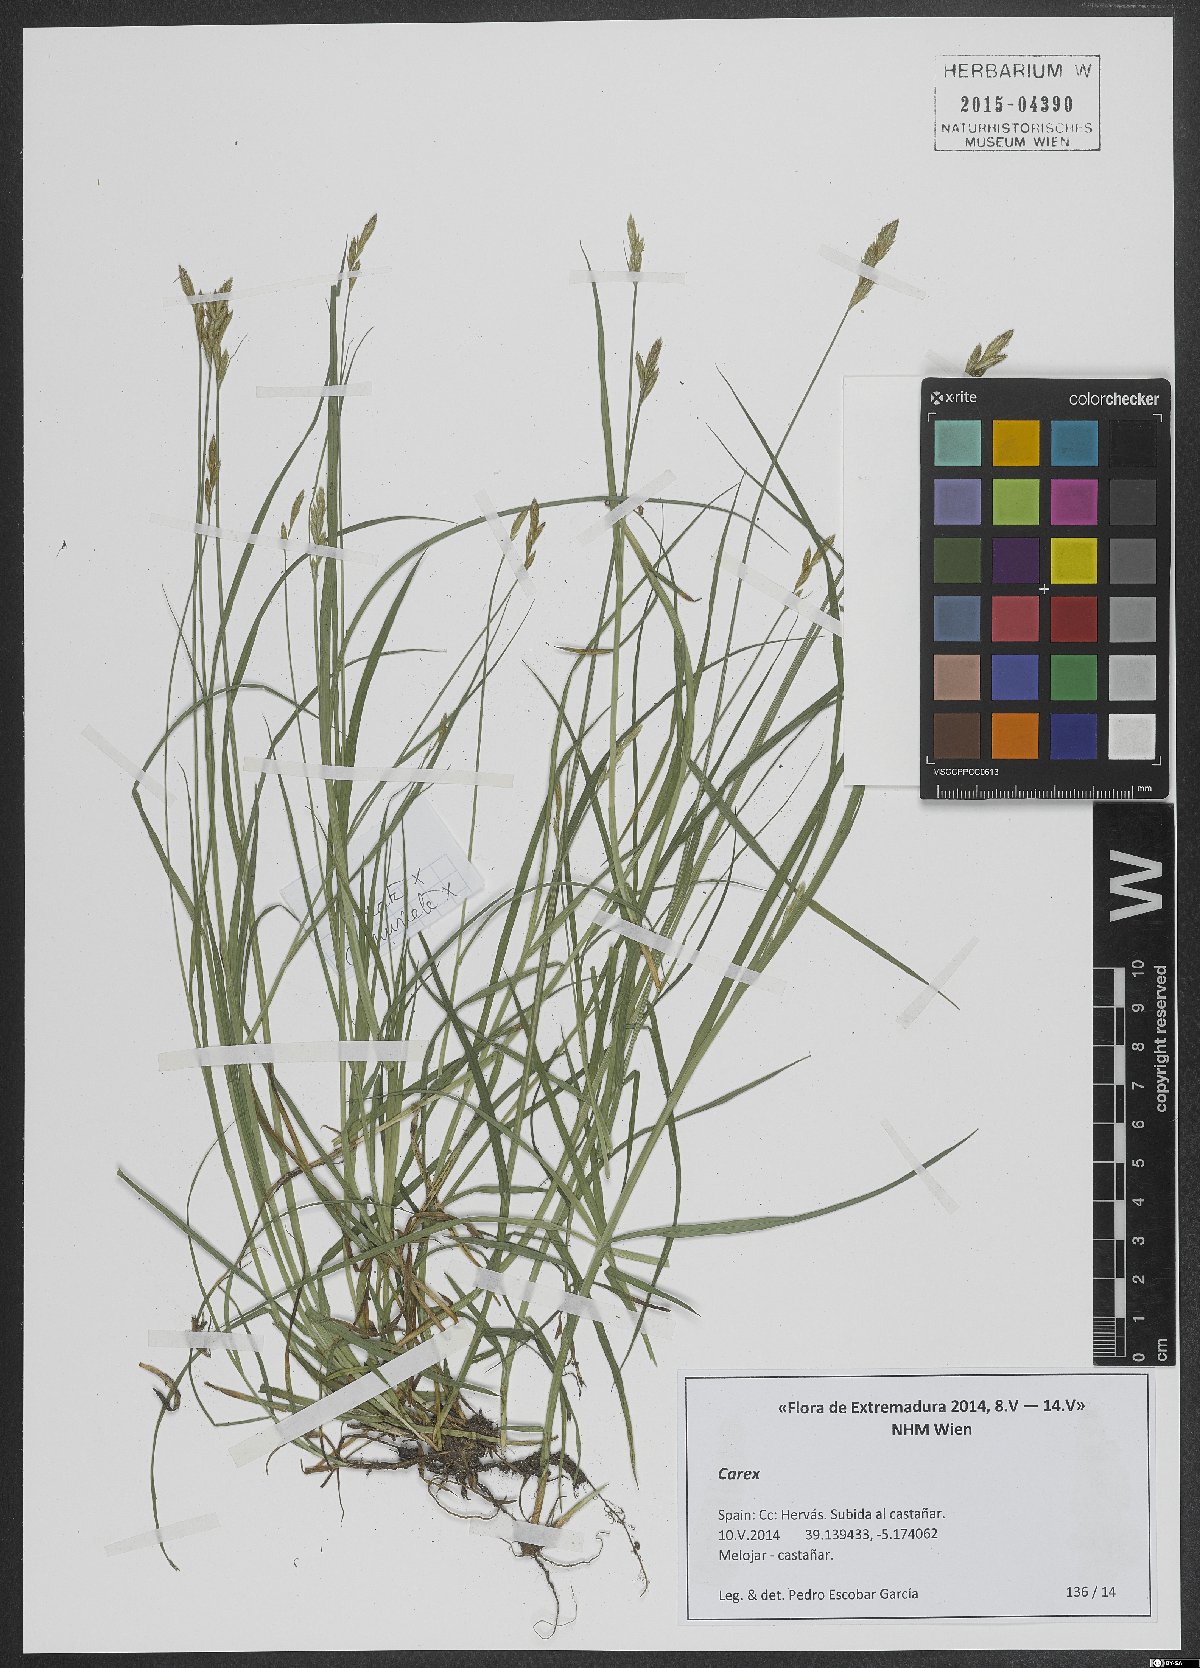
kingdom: Plantae
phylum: Tracheophyta
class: Liliopsida
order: Poales
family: Cyperaceae
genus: Carex
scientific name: Carex
